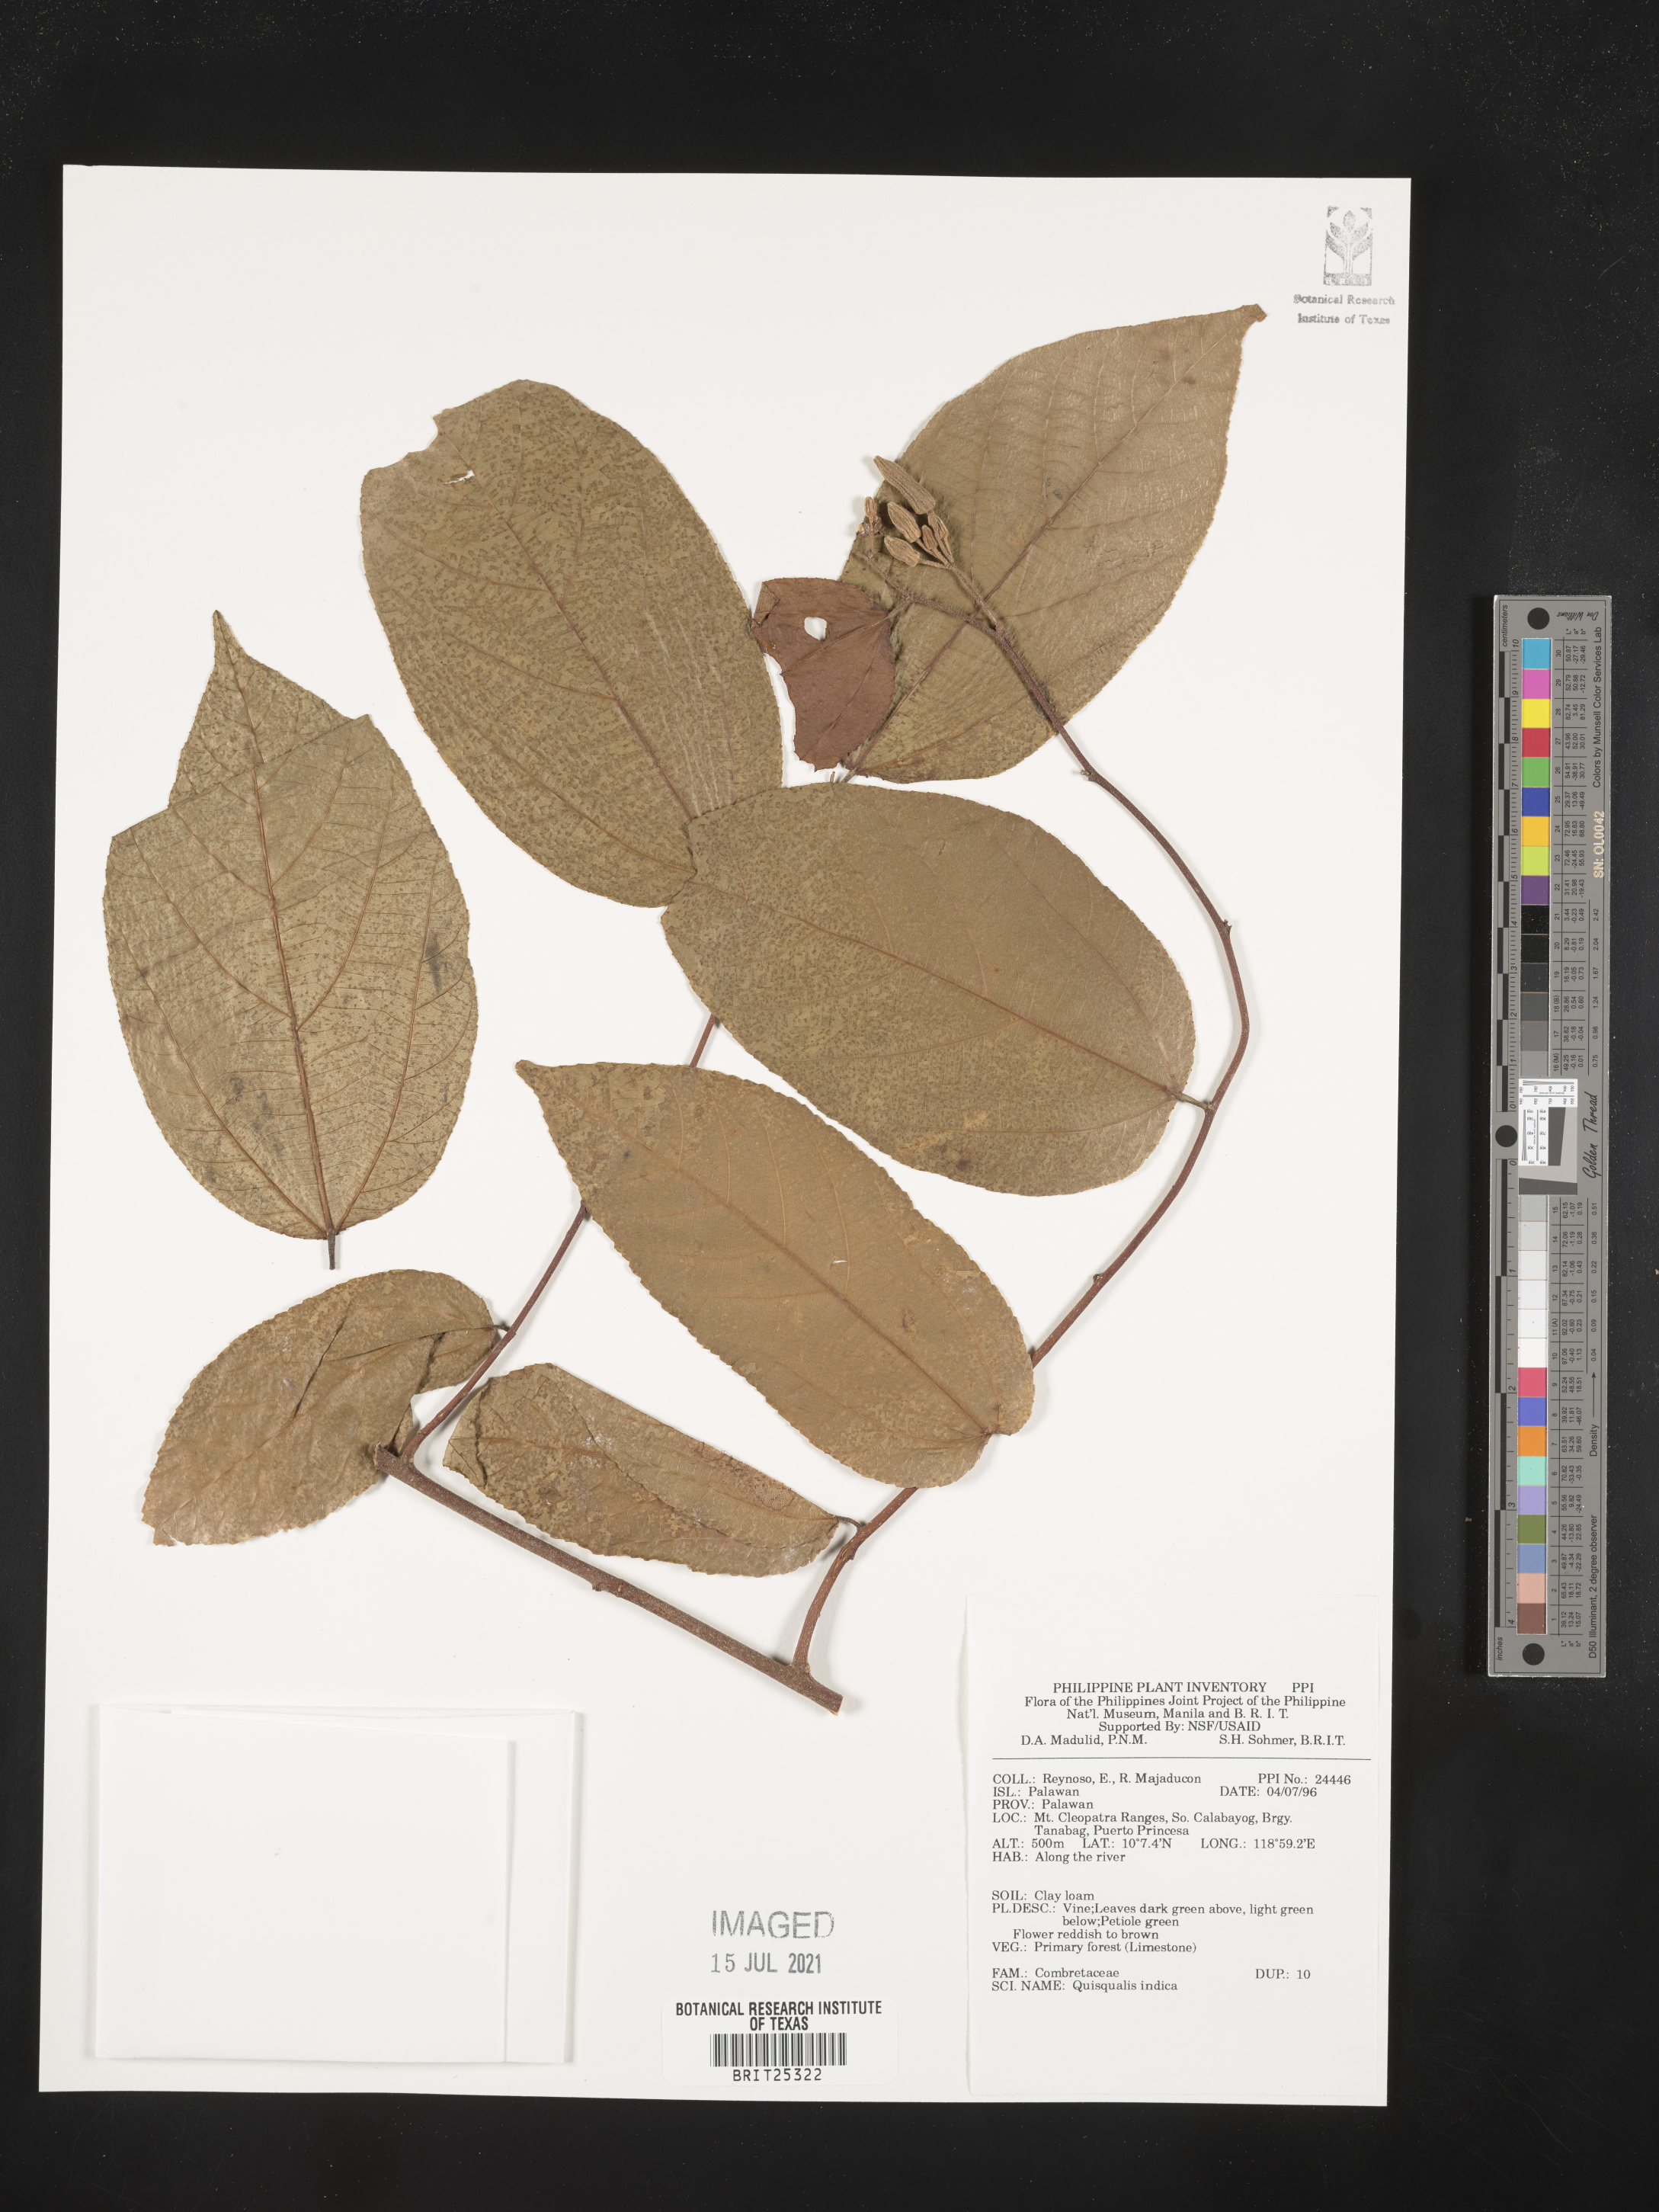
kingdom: Plantae
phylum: Tracheophyta
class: Magnoliopsida
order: Myrtales
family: Combretaceae
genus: Combretum
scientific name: Combretum indicum
